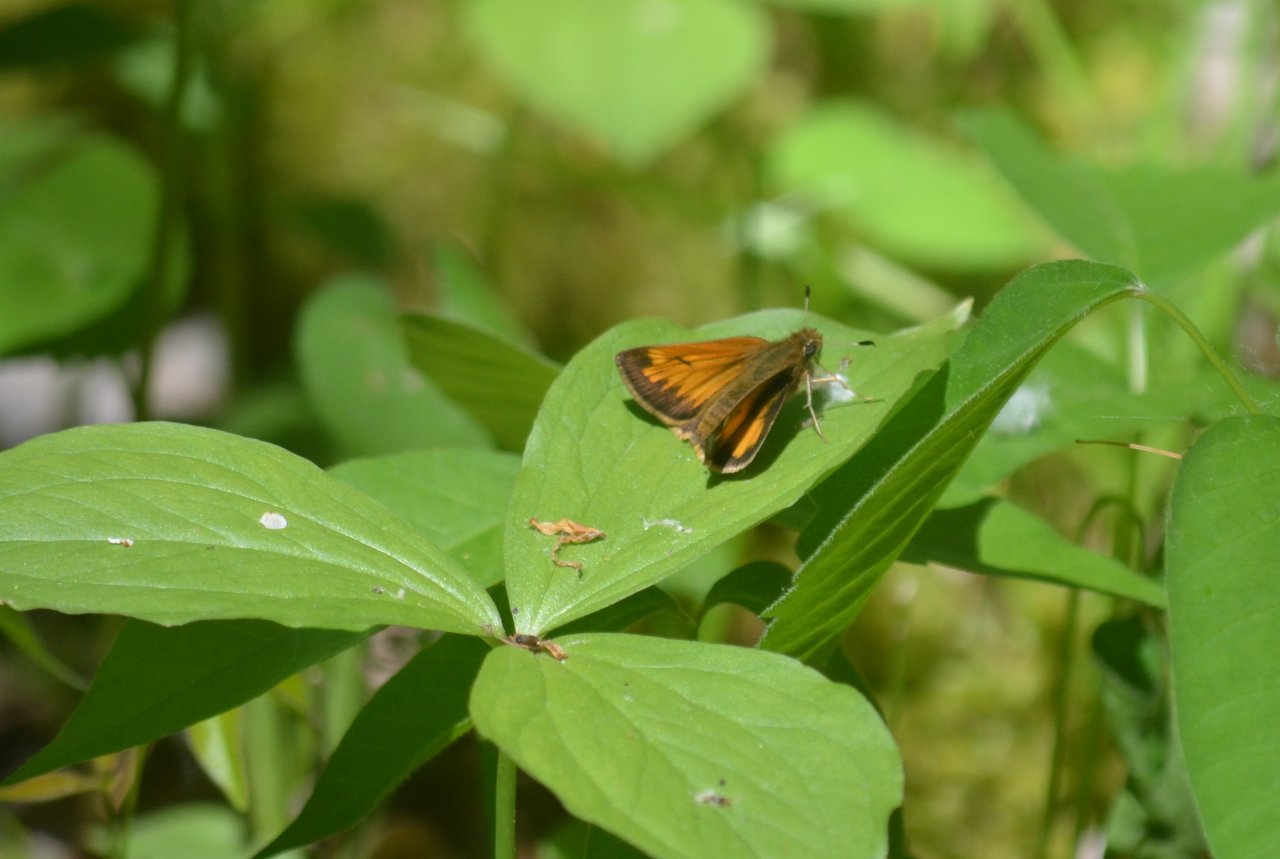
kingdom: Animalia
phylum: Arthropoda
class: Insecta
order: Lepidoptera
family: Hesperiidae
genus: Lon
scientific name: Lon hobomok
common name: Hobomok Skipper
